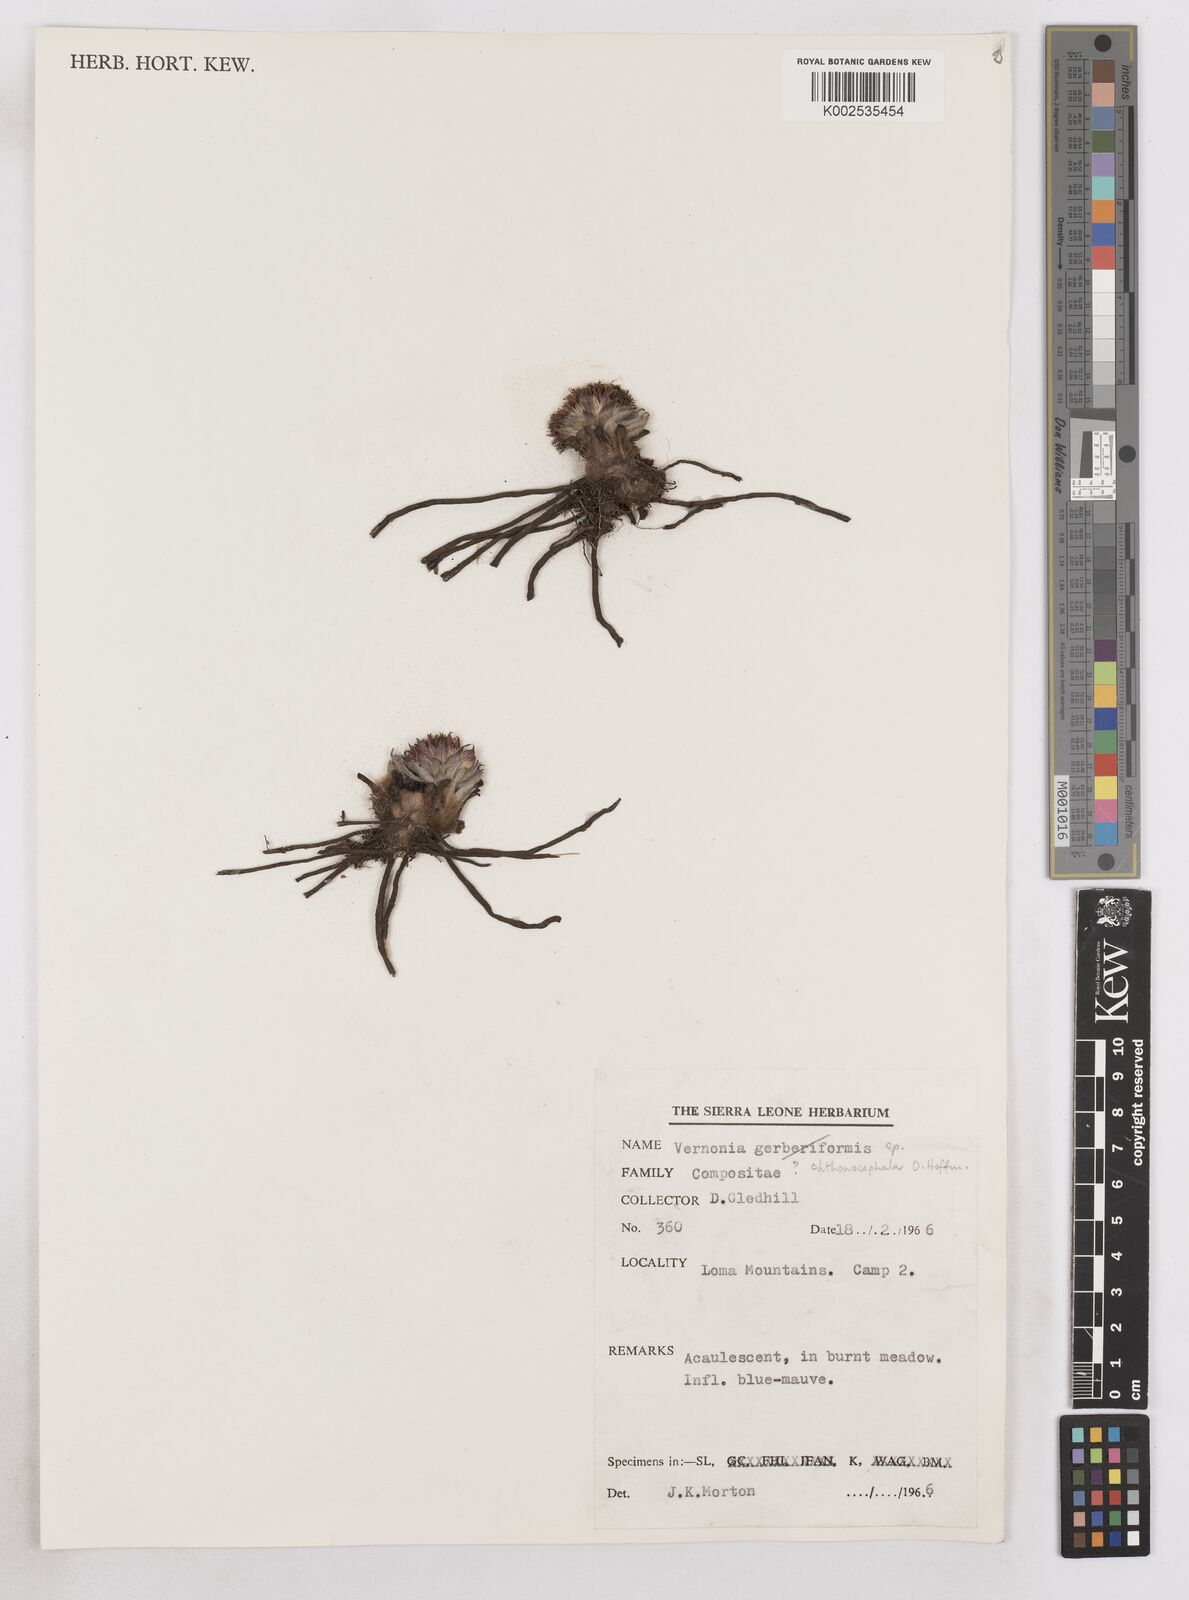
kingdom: Plantae
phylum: Tracheophyta
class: Magnoliopsida
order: Asterales
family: Asteraceae
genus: Vernonella
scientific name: Vernonella chthonocephala
